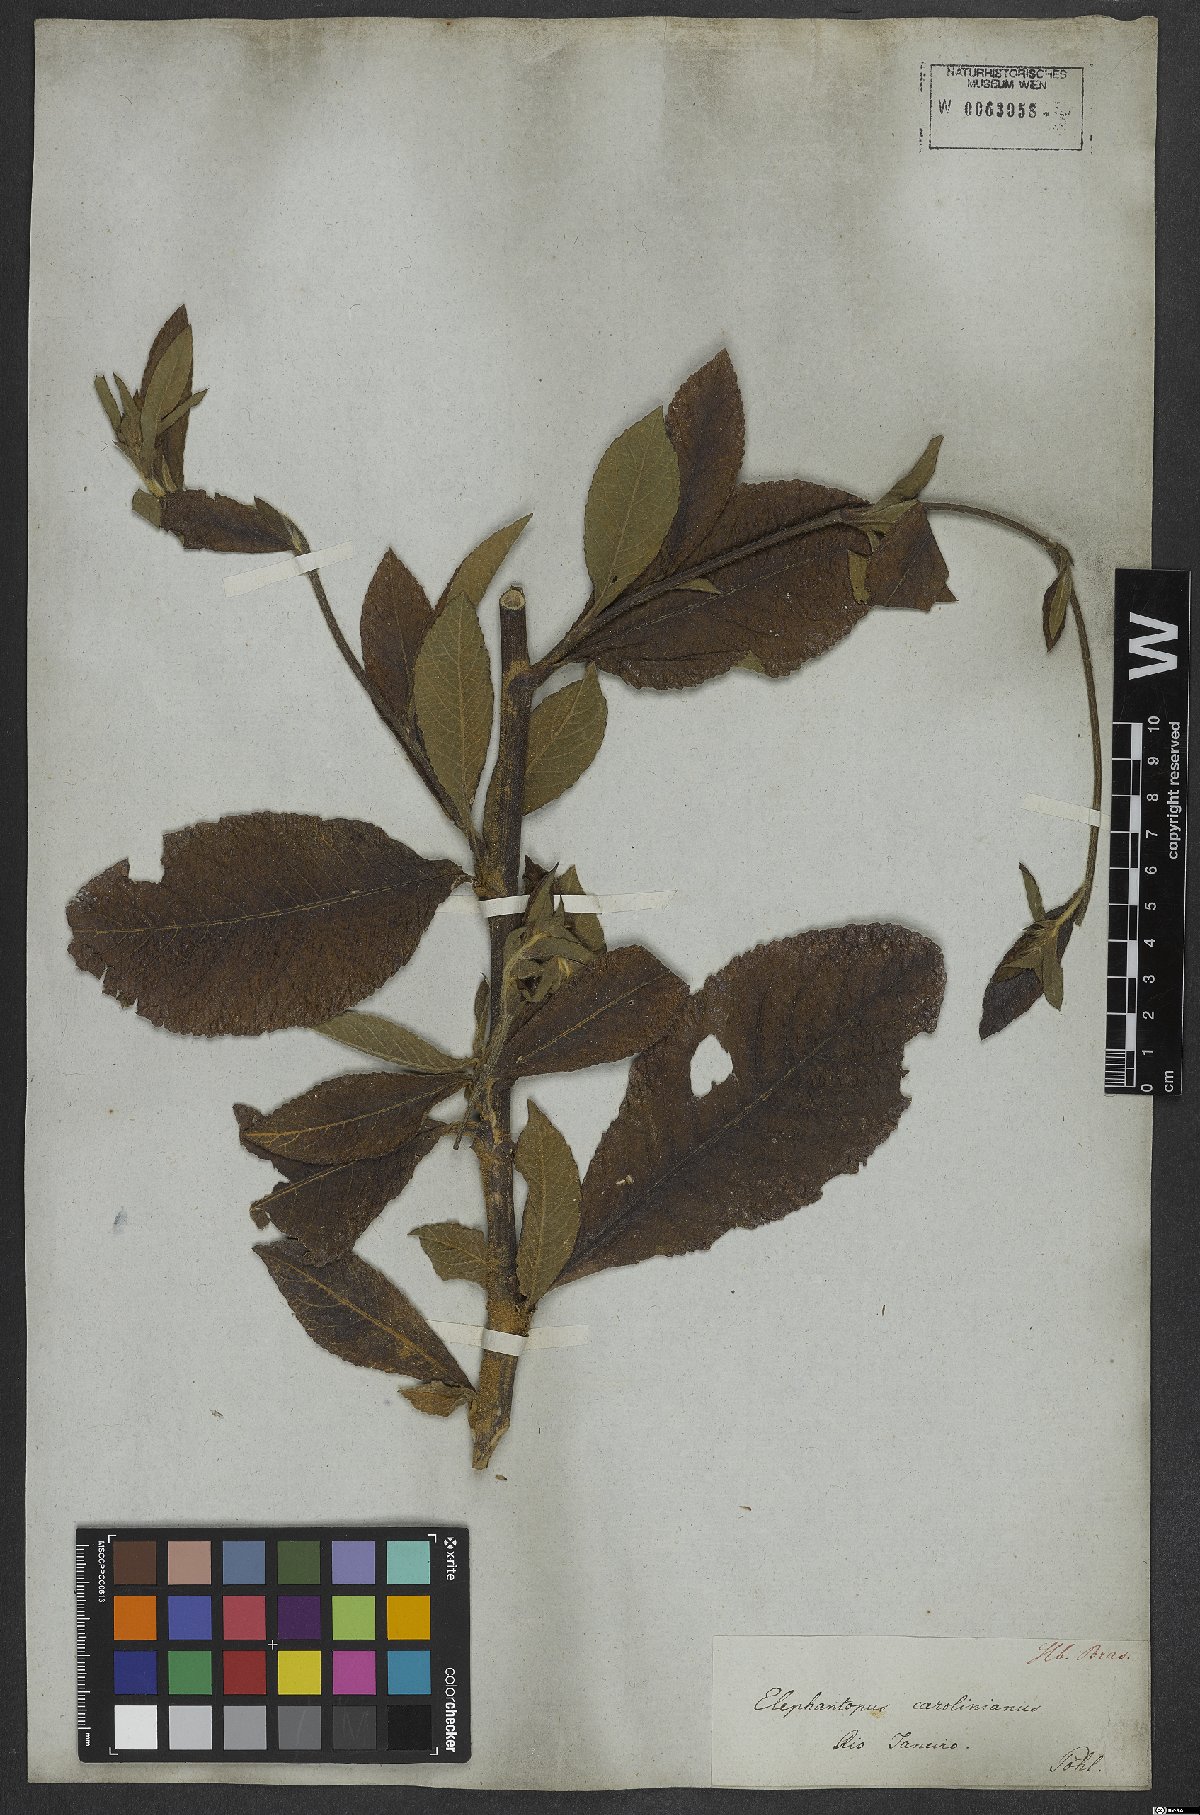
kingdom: Plantae
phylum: Tracheophyta
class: Magnoliopsida
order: Asterales
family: Asteraceae
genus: Elephantopus
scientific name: Elephantopus carolinianus
